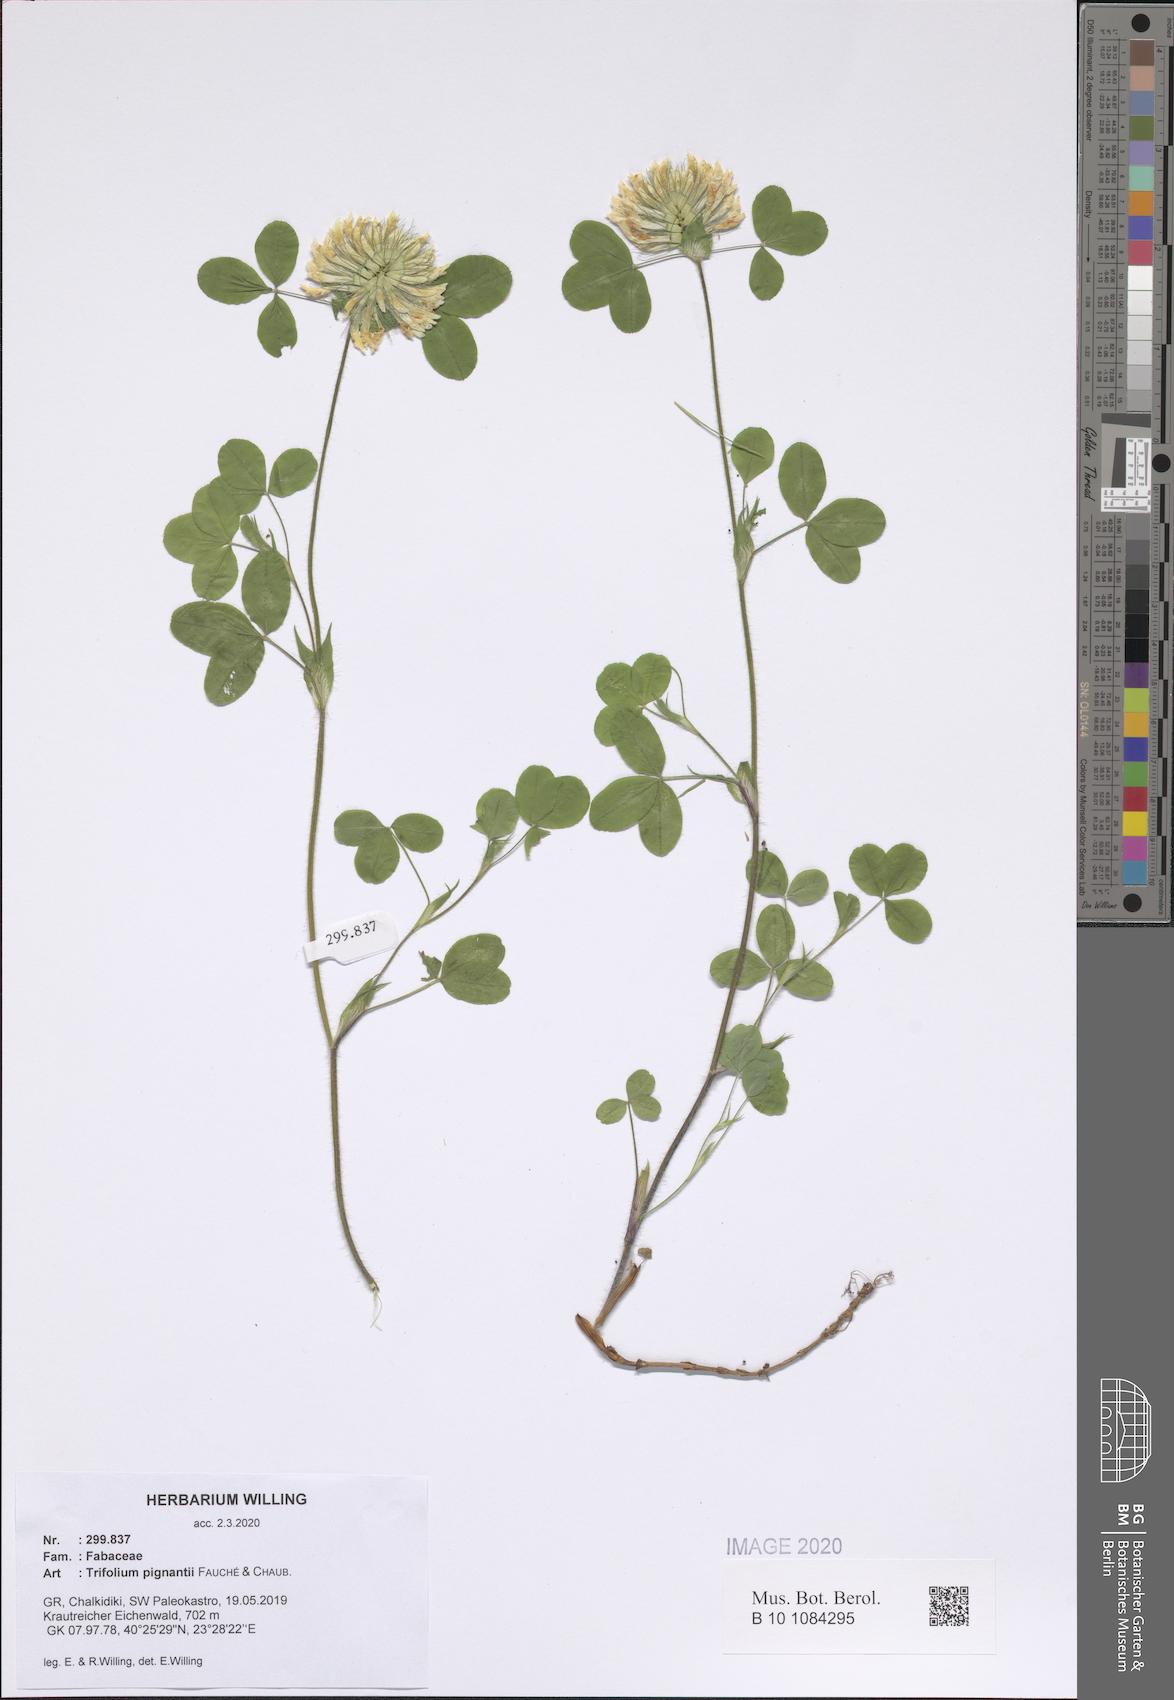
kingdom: Plantae
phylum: Tracheophyta
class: Magnoliopsida
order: Fabales
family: Fabaceae
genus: Trifolium
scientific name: Trifolium pignantii
